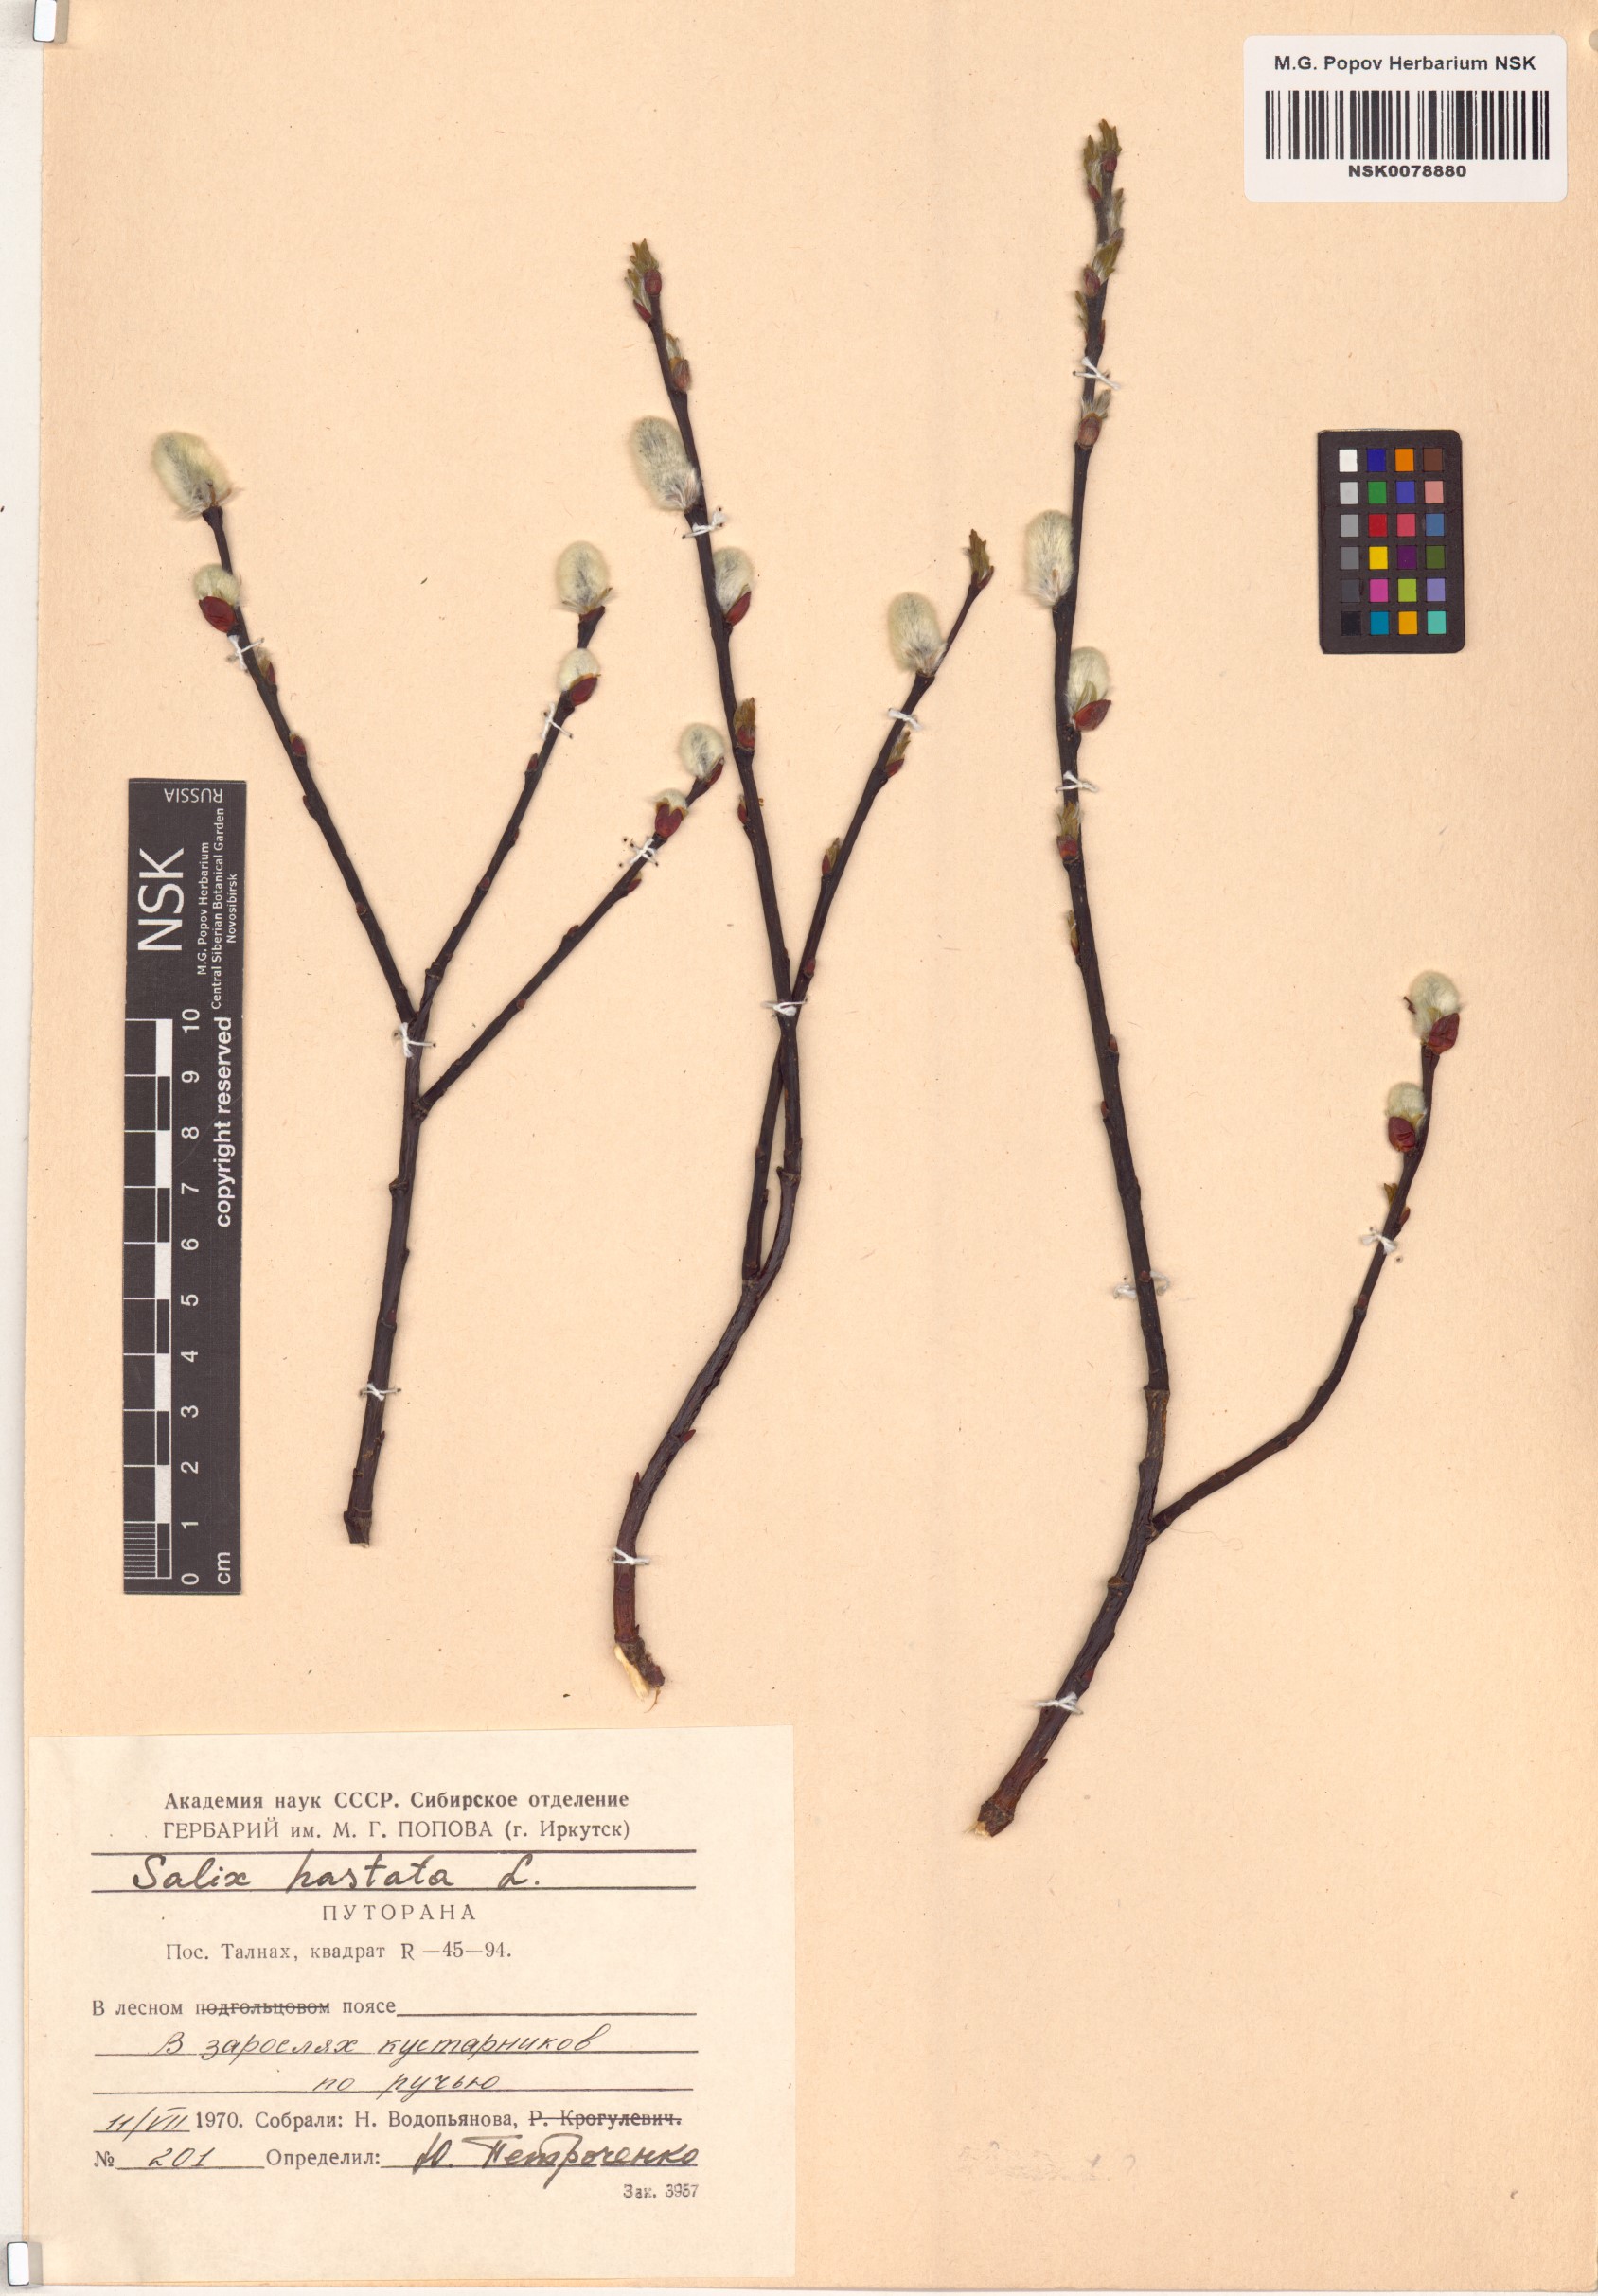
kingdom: Plantae
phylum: Tracheophyta
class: Magnoliopsida
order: Malpighiales
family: Salicaceae
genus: Salix
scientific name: Salix hastata
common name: Halberd willow
